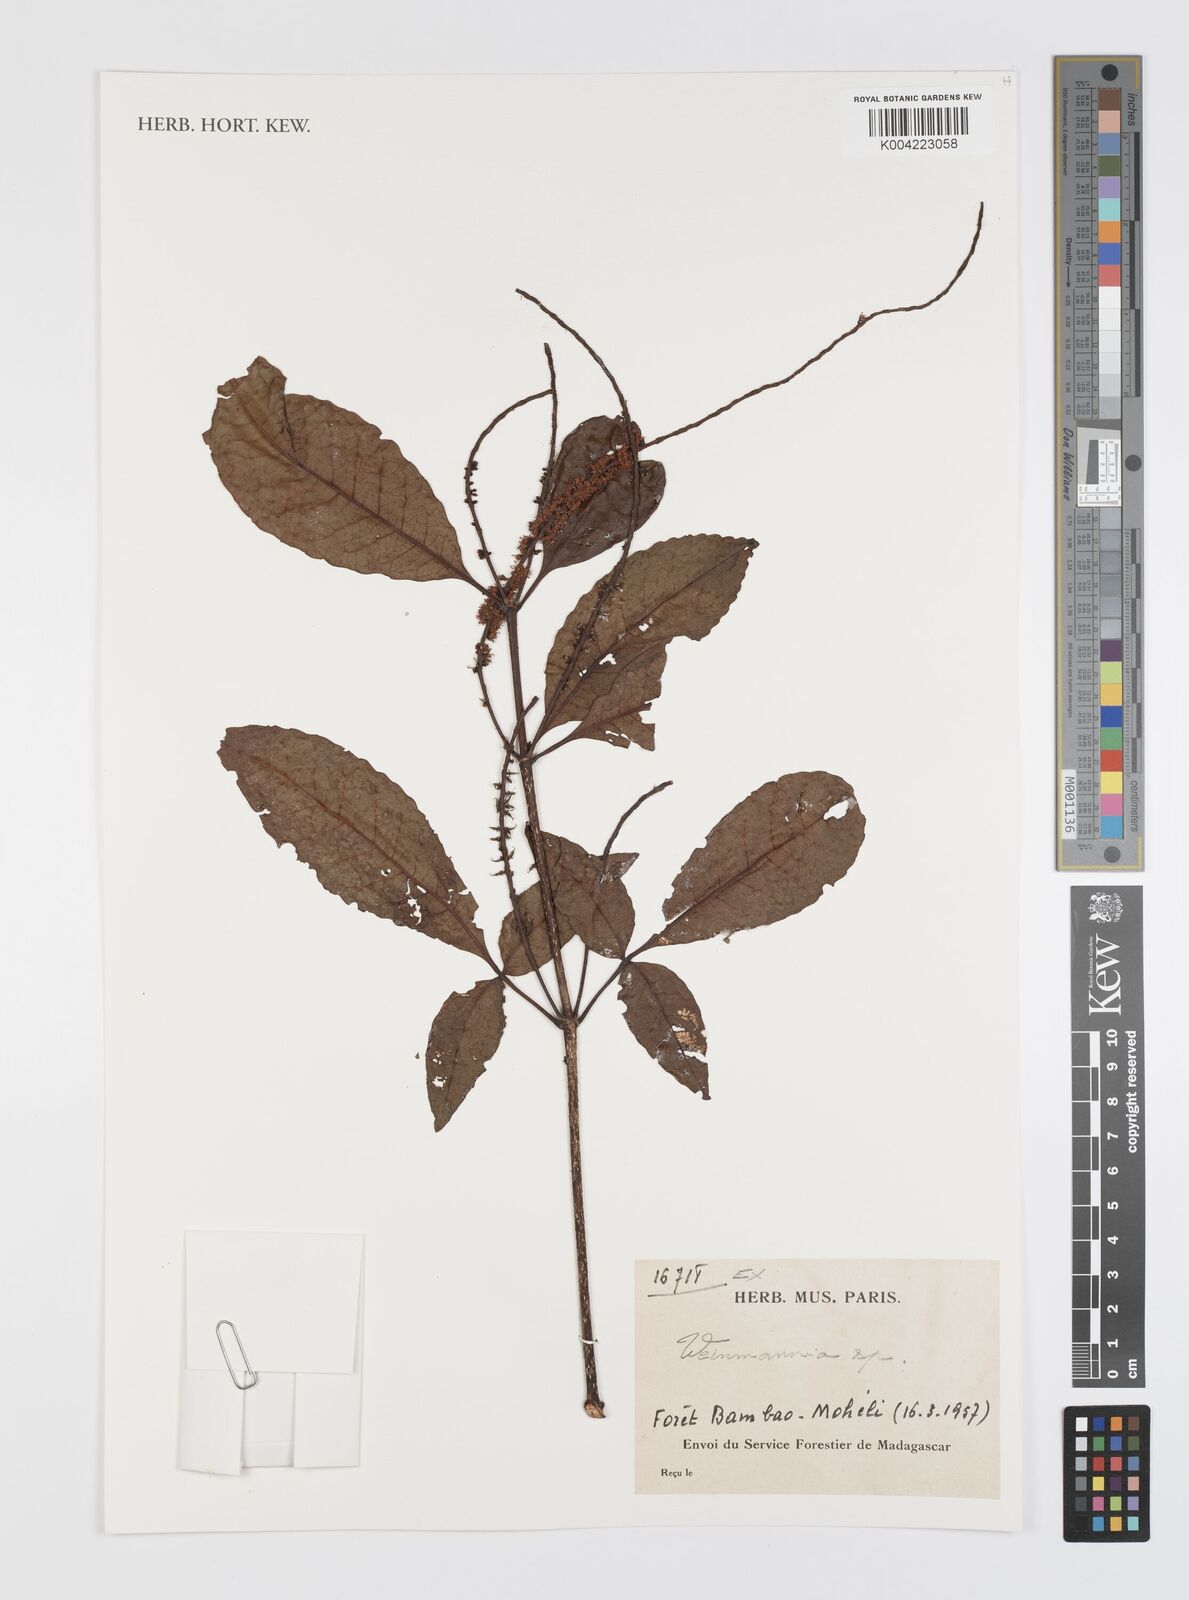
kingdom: Plantae
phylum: Tracheophyta
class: Magnoliopsida
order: Oxalidales
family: Cunoniaceae
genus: Weinmannia
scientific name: Weinmannia
